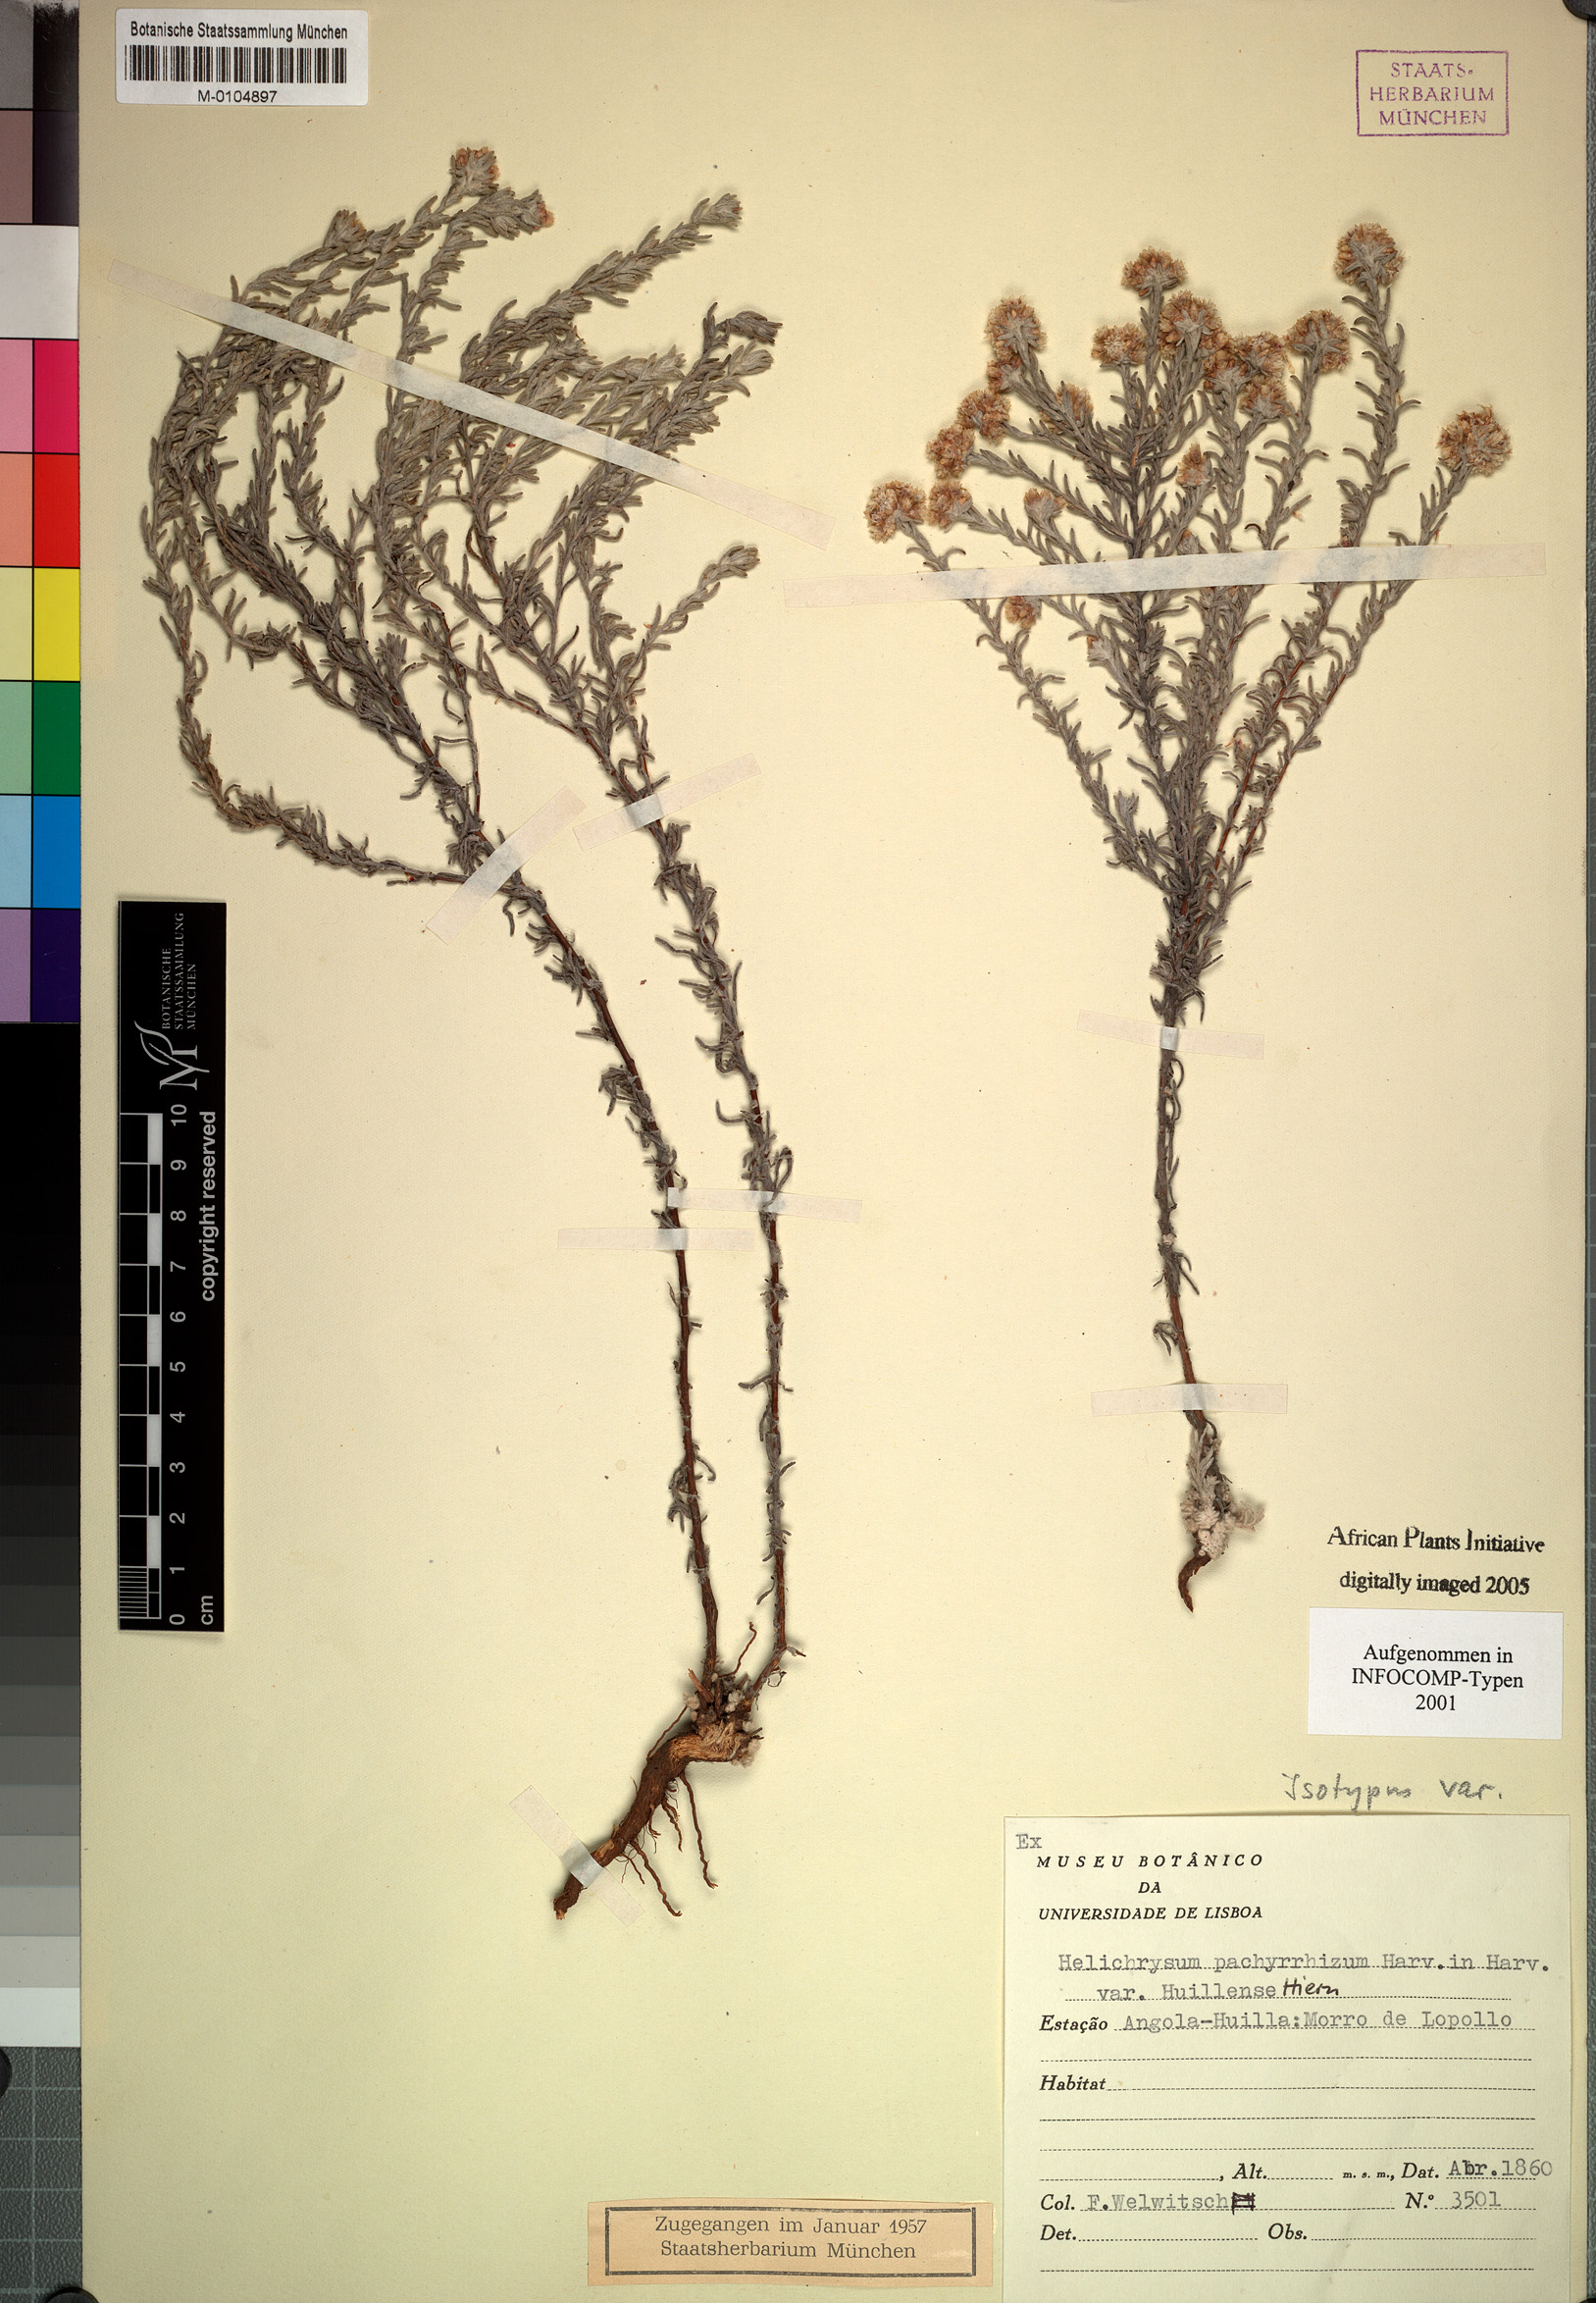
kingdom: Plantae
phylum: Tracheophyta
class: Magnoliopsida
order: Asterales
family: Asteraceae
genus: Helichrysum
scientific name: Helichrysum candolleanum
